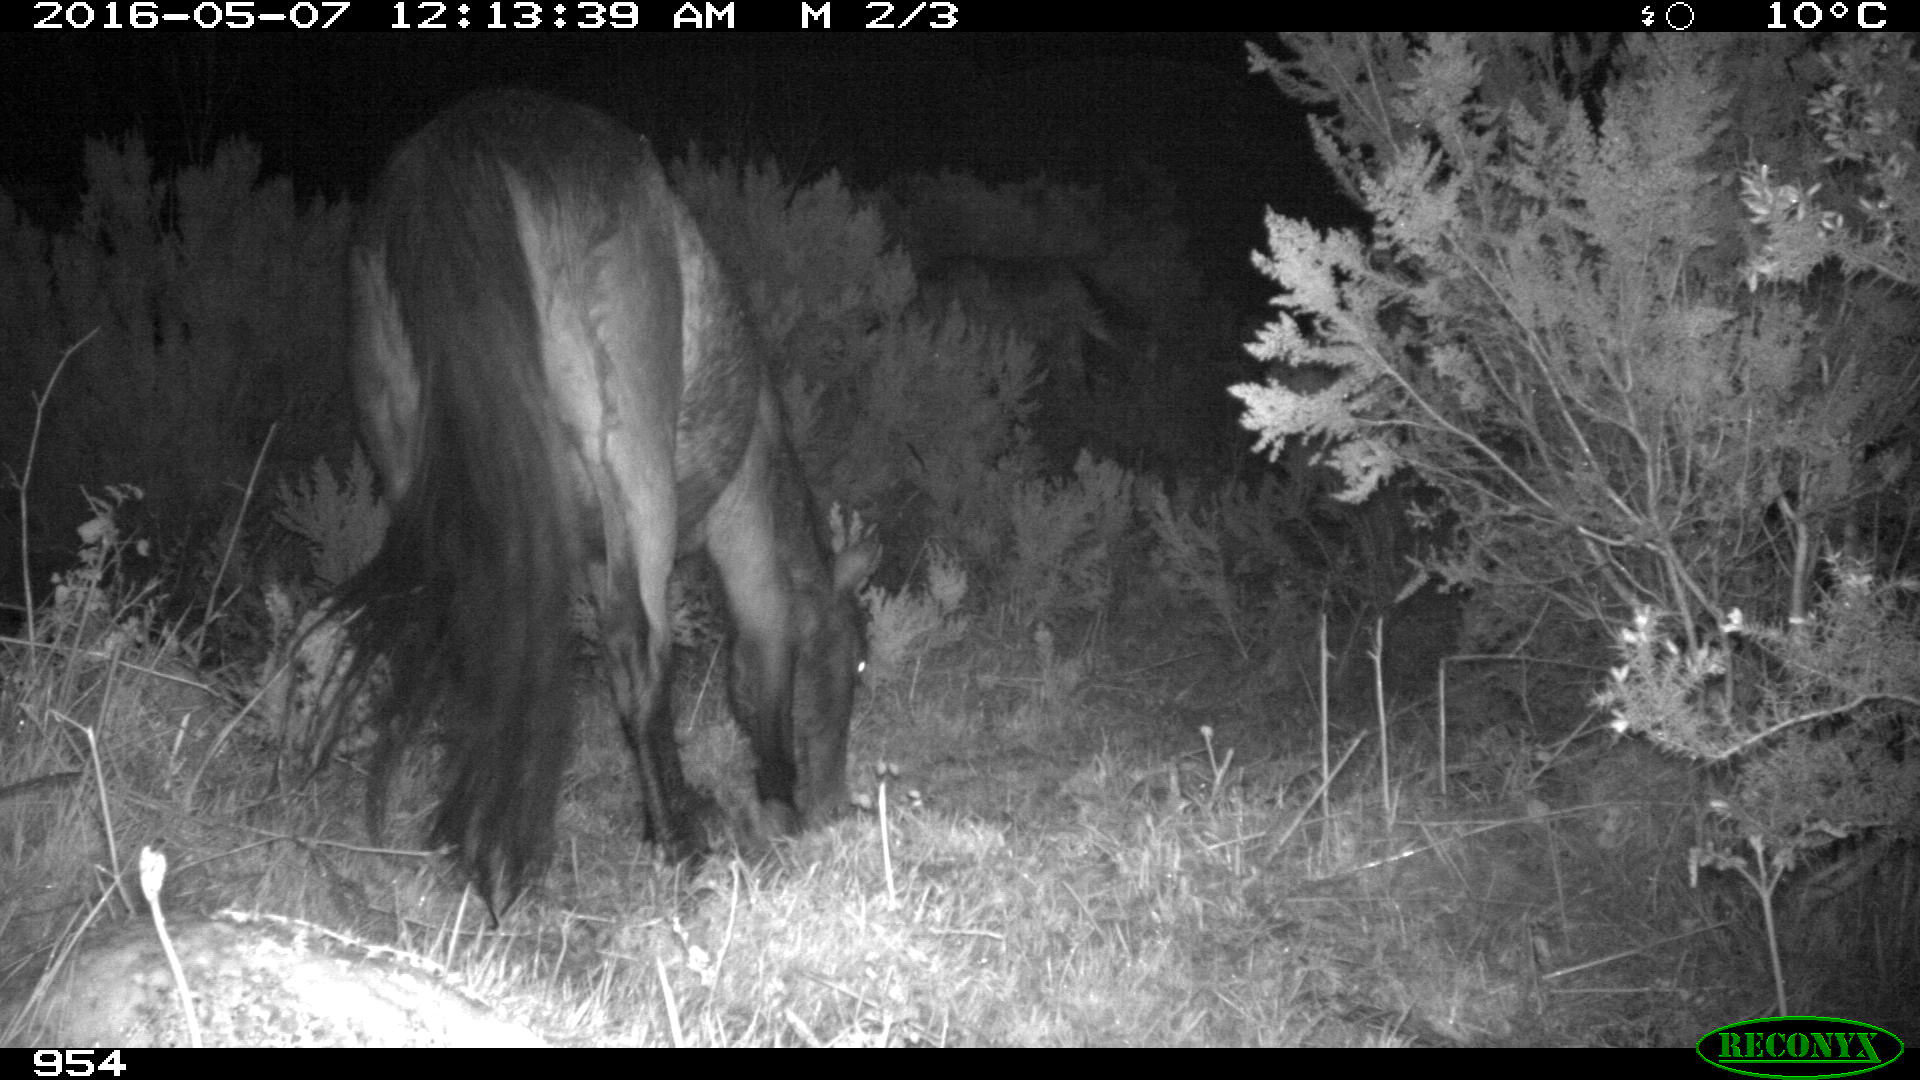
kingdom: Animalia
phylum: Chordata
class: Mammalia
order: Perissodactyla
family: Equidae
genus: Equus
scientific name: Equus caballus
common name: Horse
